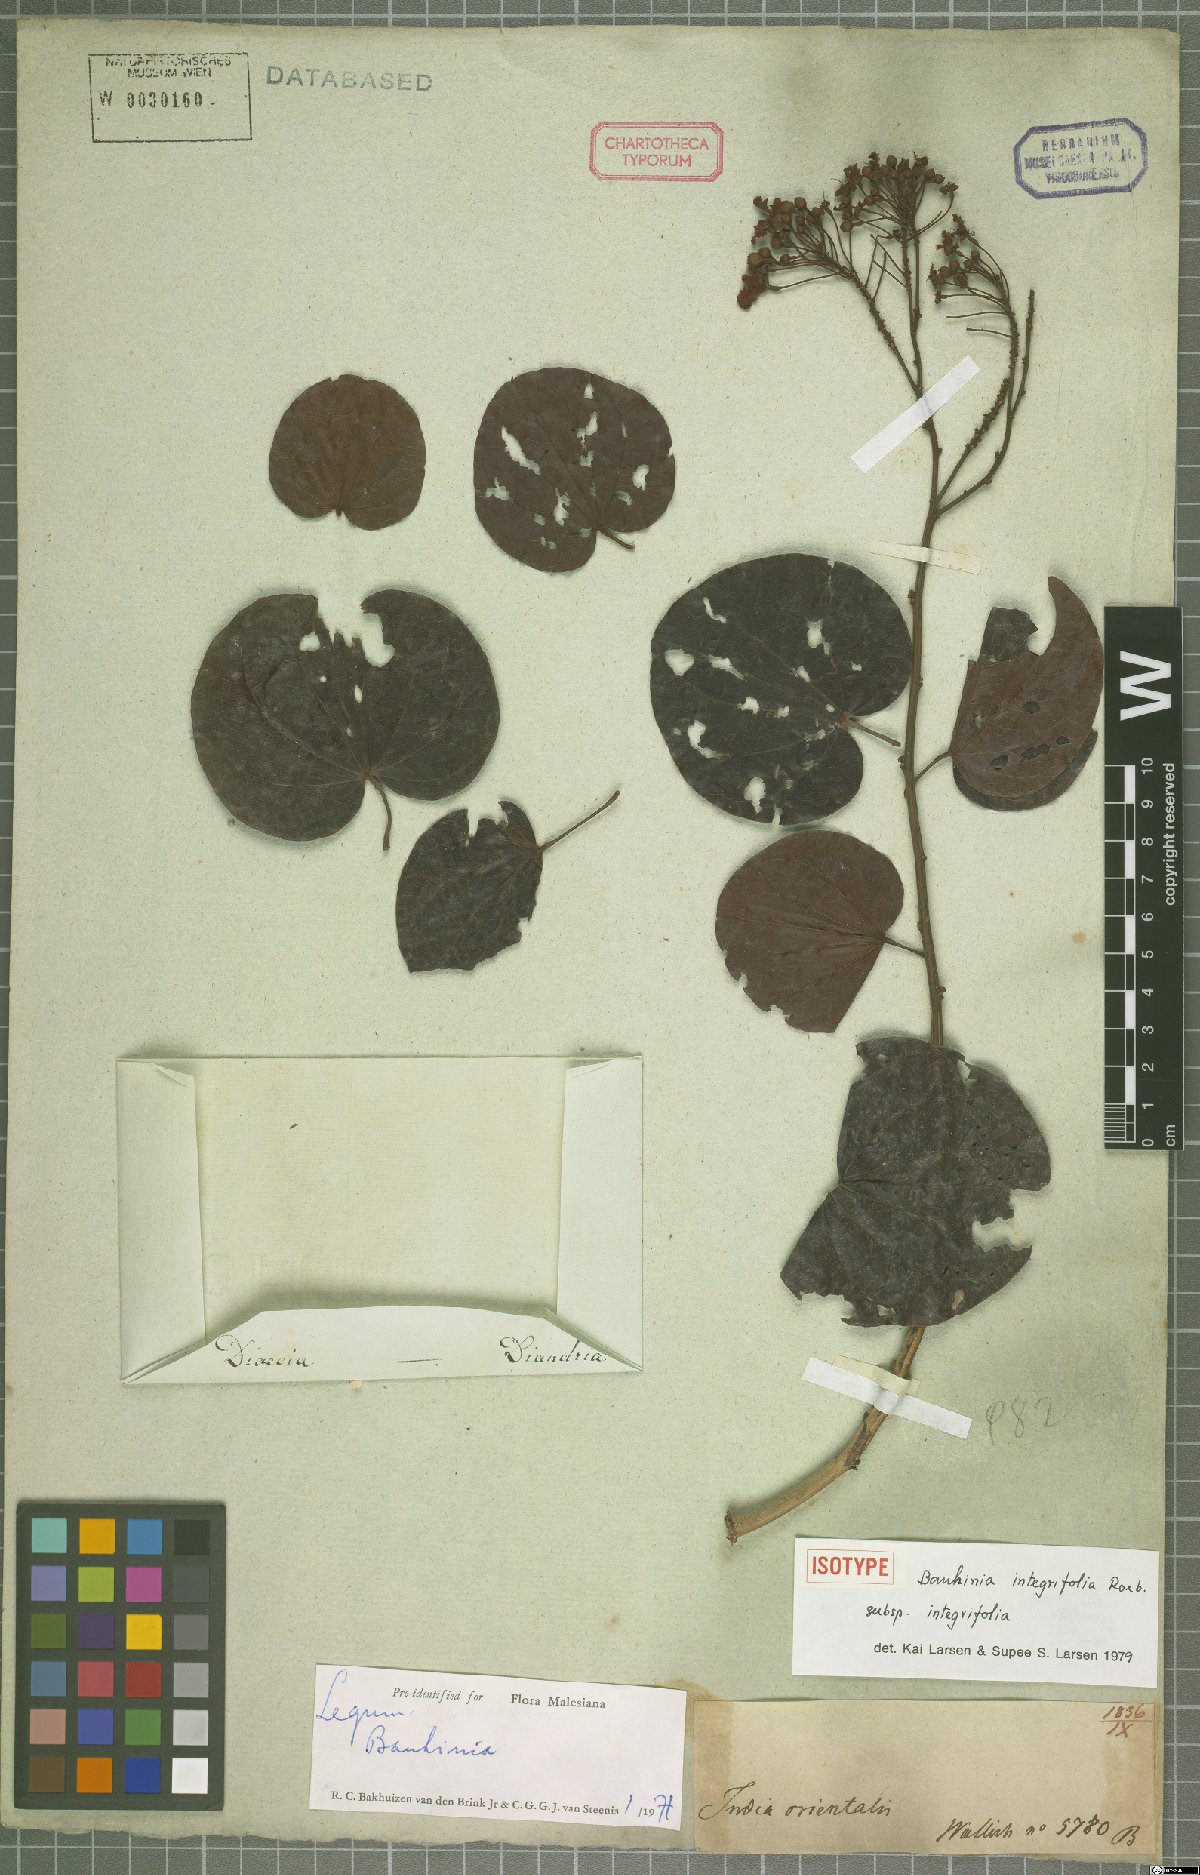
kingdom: Plantae
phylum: Tracheophyta
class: Magnoliopsida
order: Fabales
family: Fabaceae
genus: Phanera
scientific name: Phanera integrifolia
